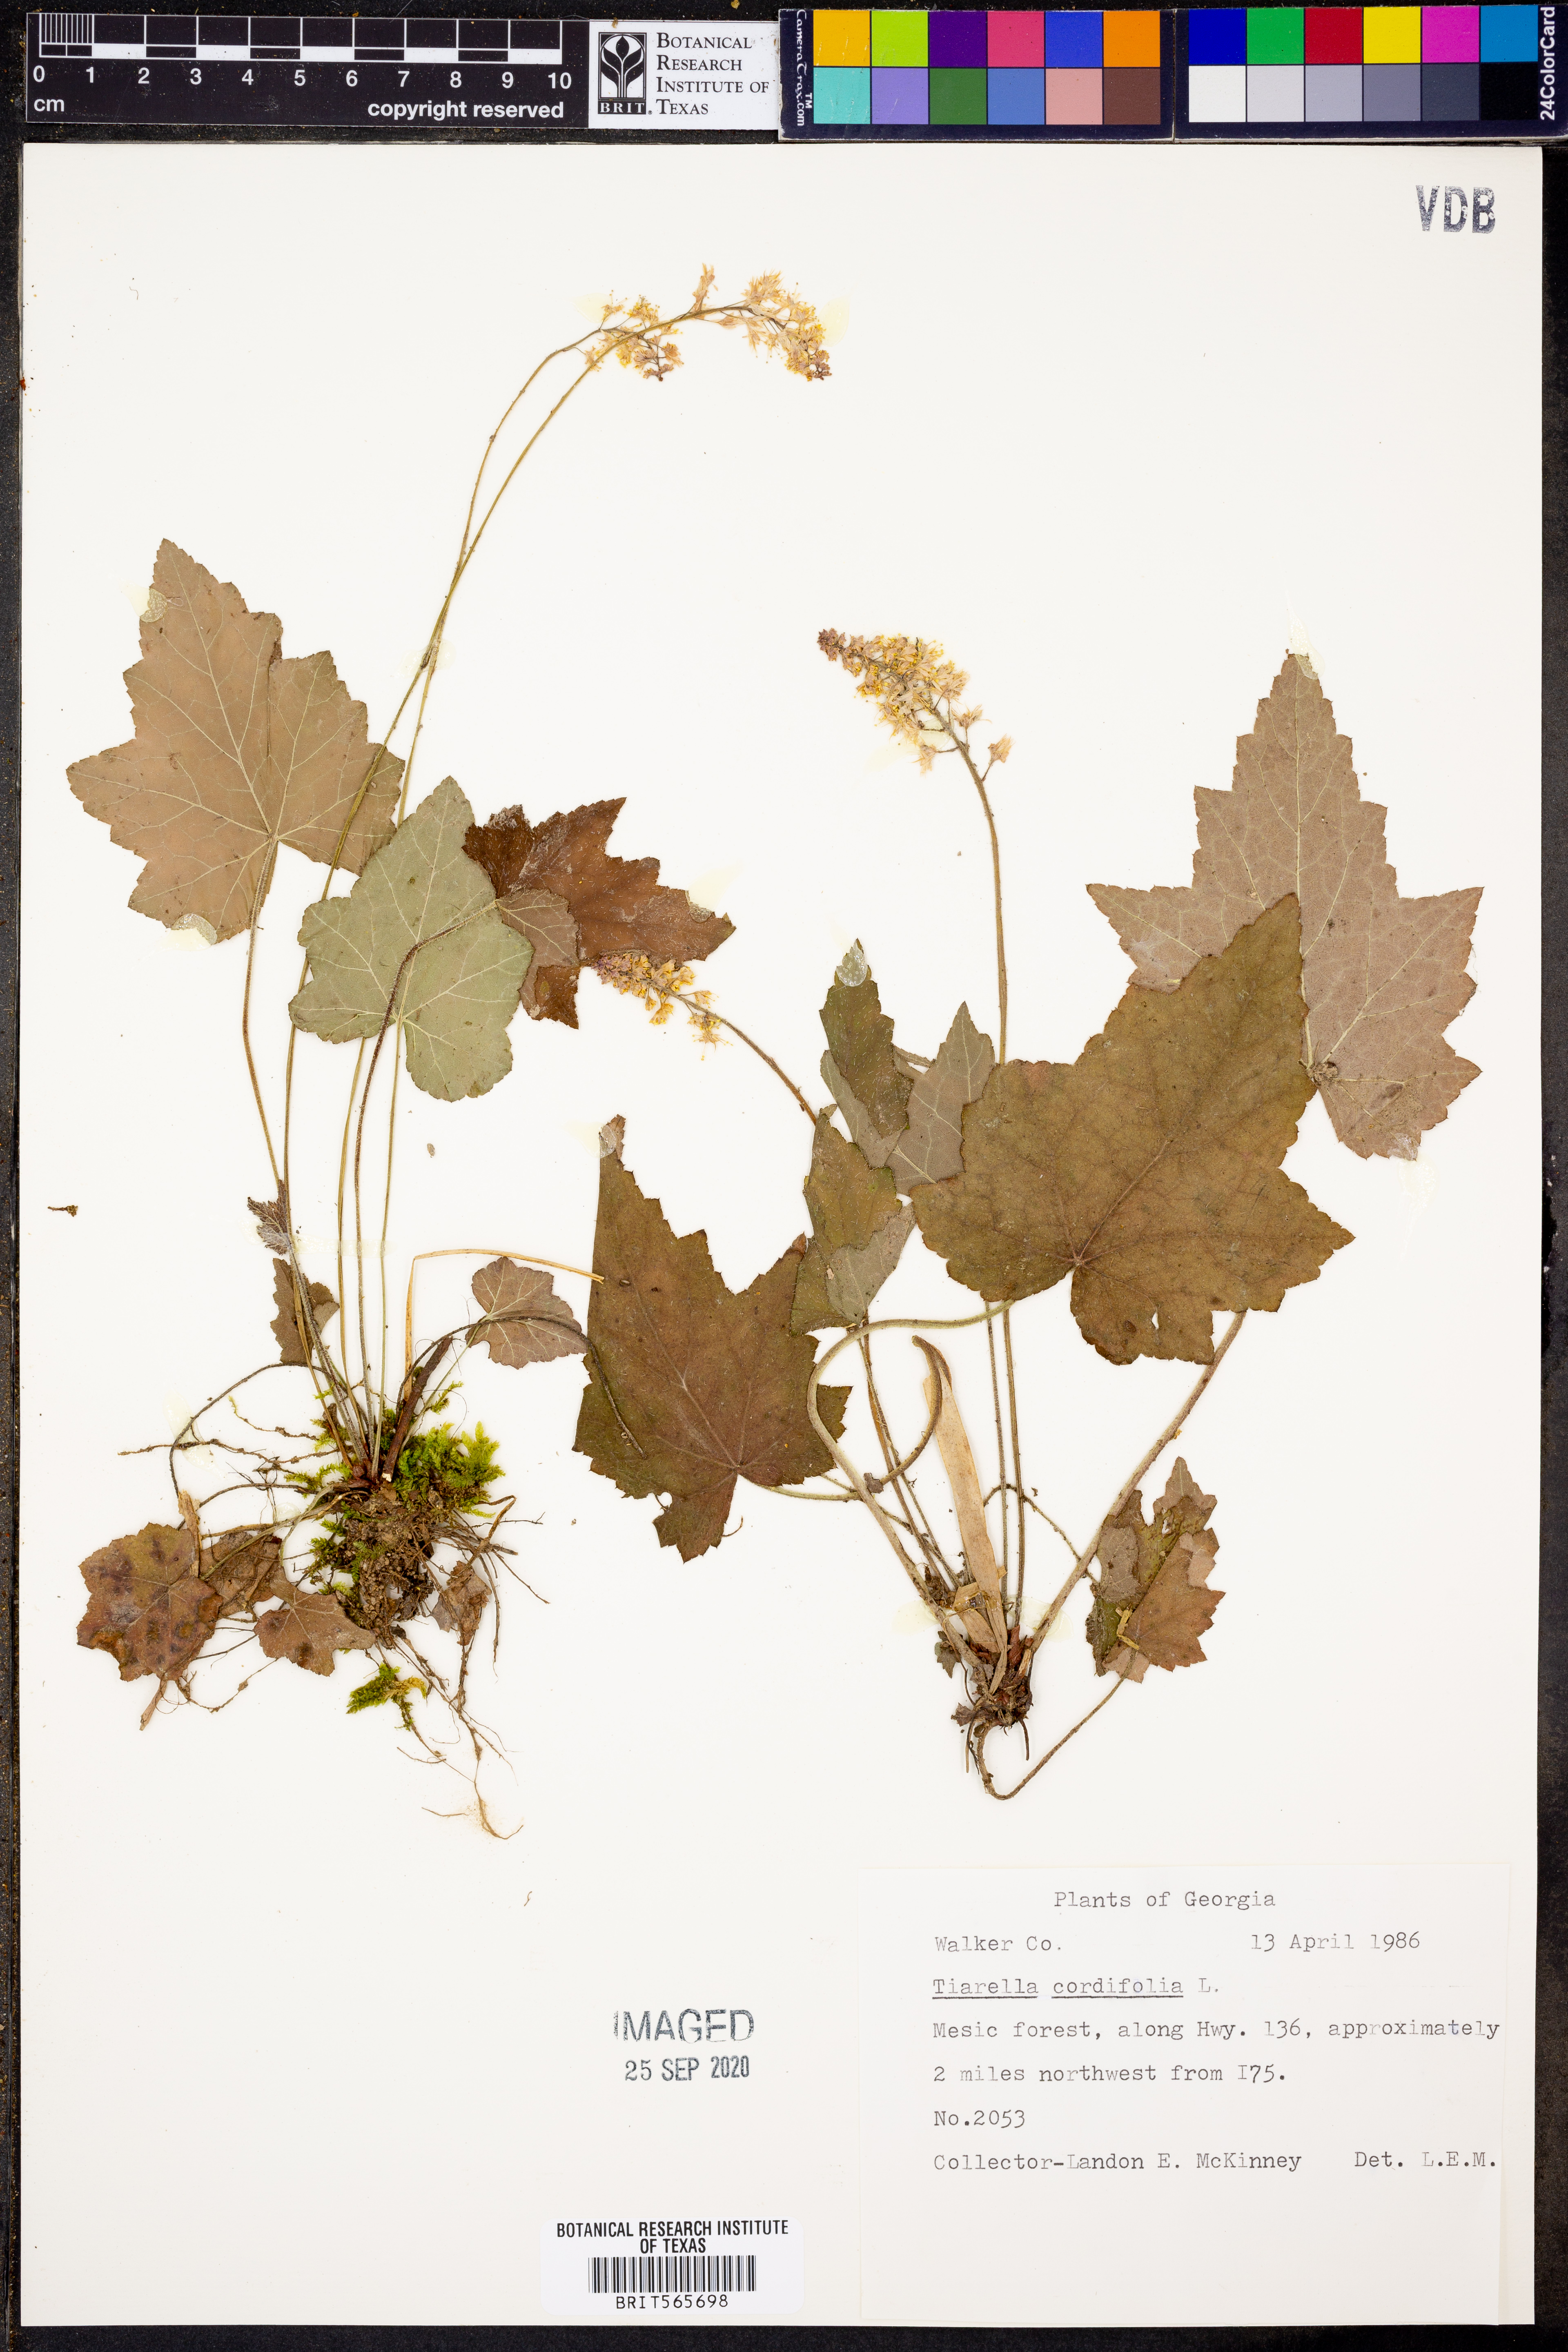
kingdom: Plantae
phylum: Tracheophyta
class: Magnoliopsida
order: Saxifragales
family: Saxifragaceae
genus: Tiarella
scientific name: Tiarella cordifolia
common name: Foamflower
